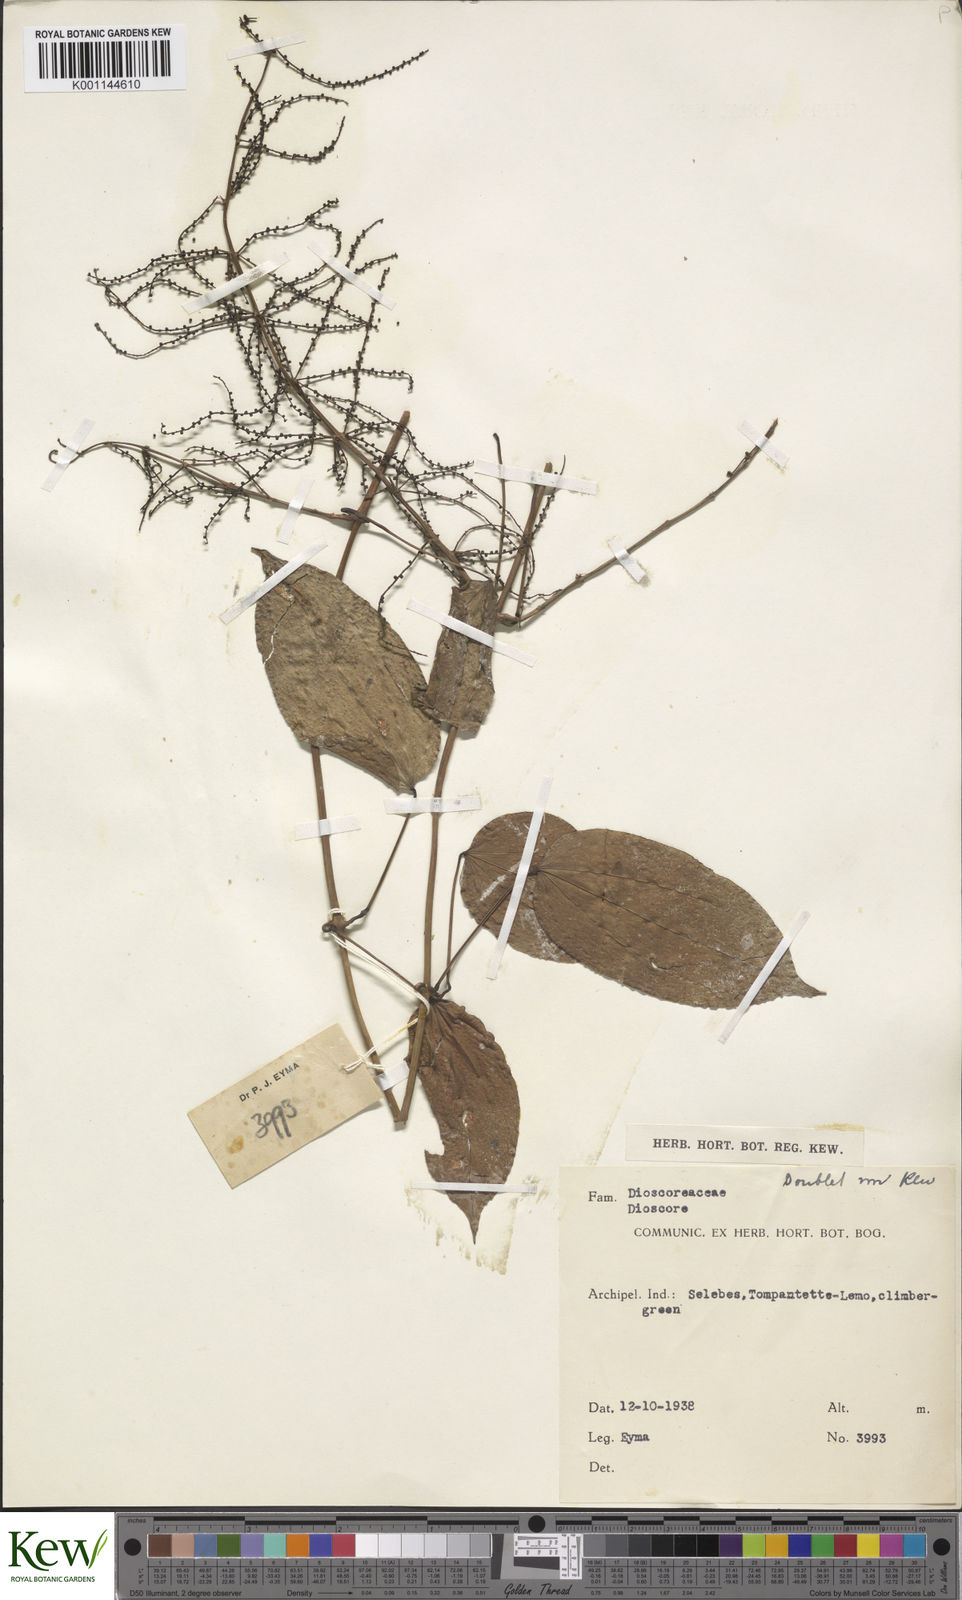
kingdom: Plantae
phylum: Tracheophyta
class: Liliopsida
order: Dioscoreales
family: Dioscoreaceae
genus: Dioscorea
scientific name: Dioscorea pyrifolia
